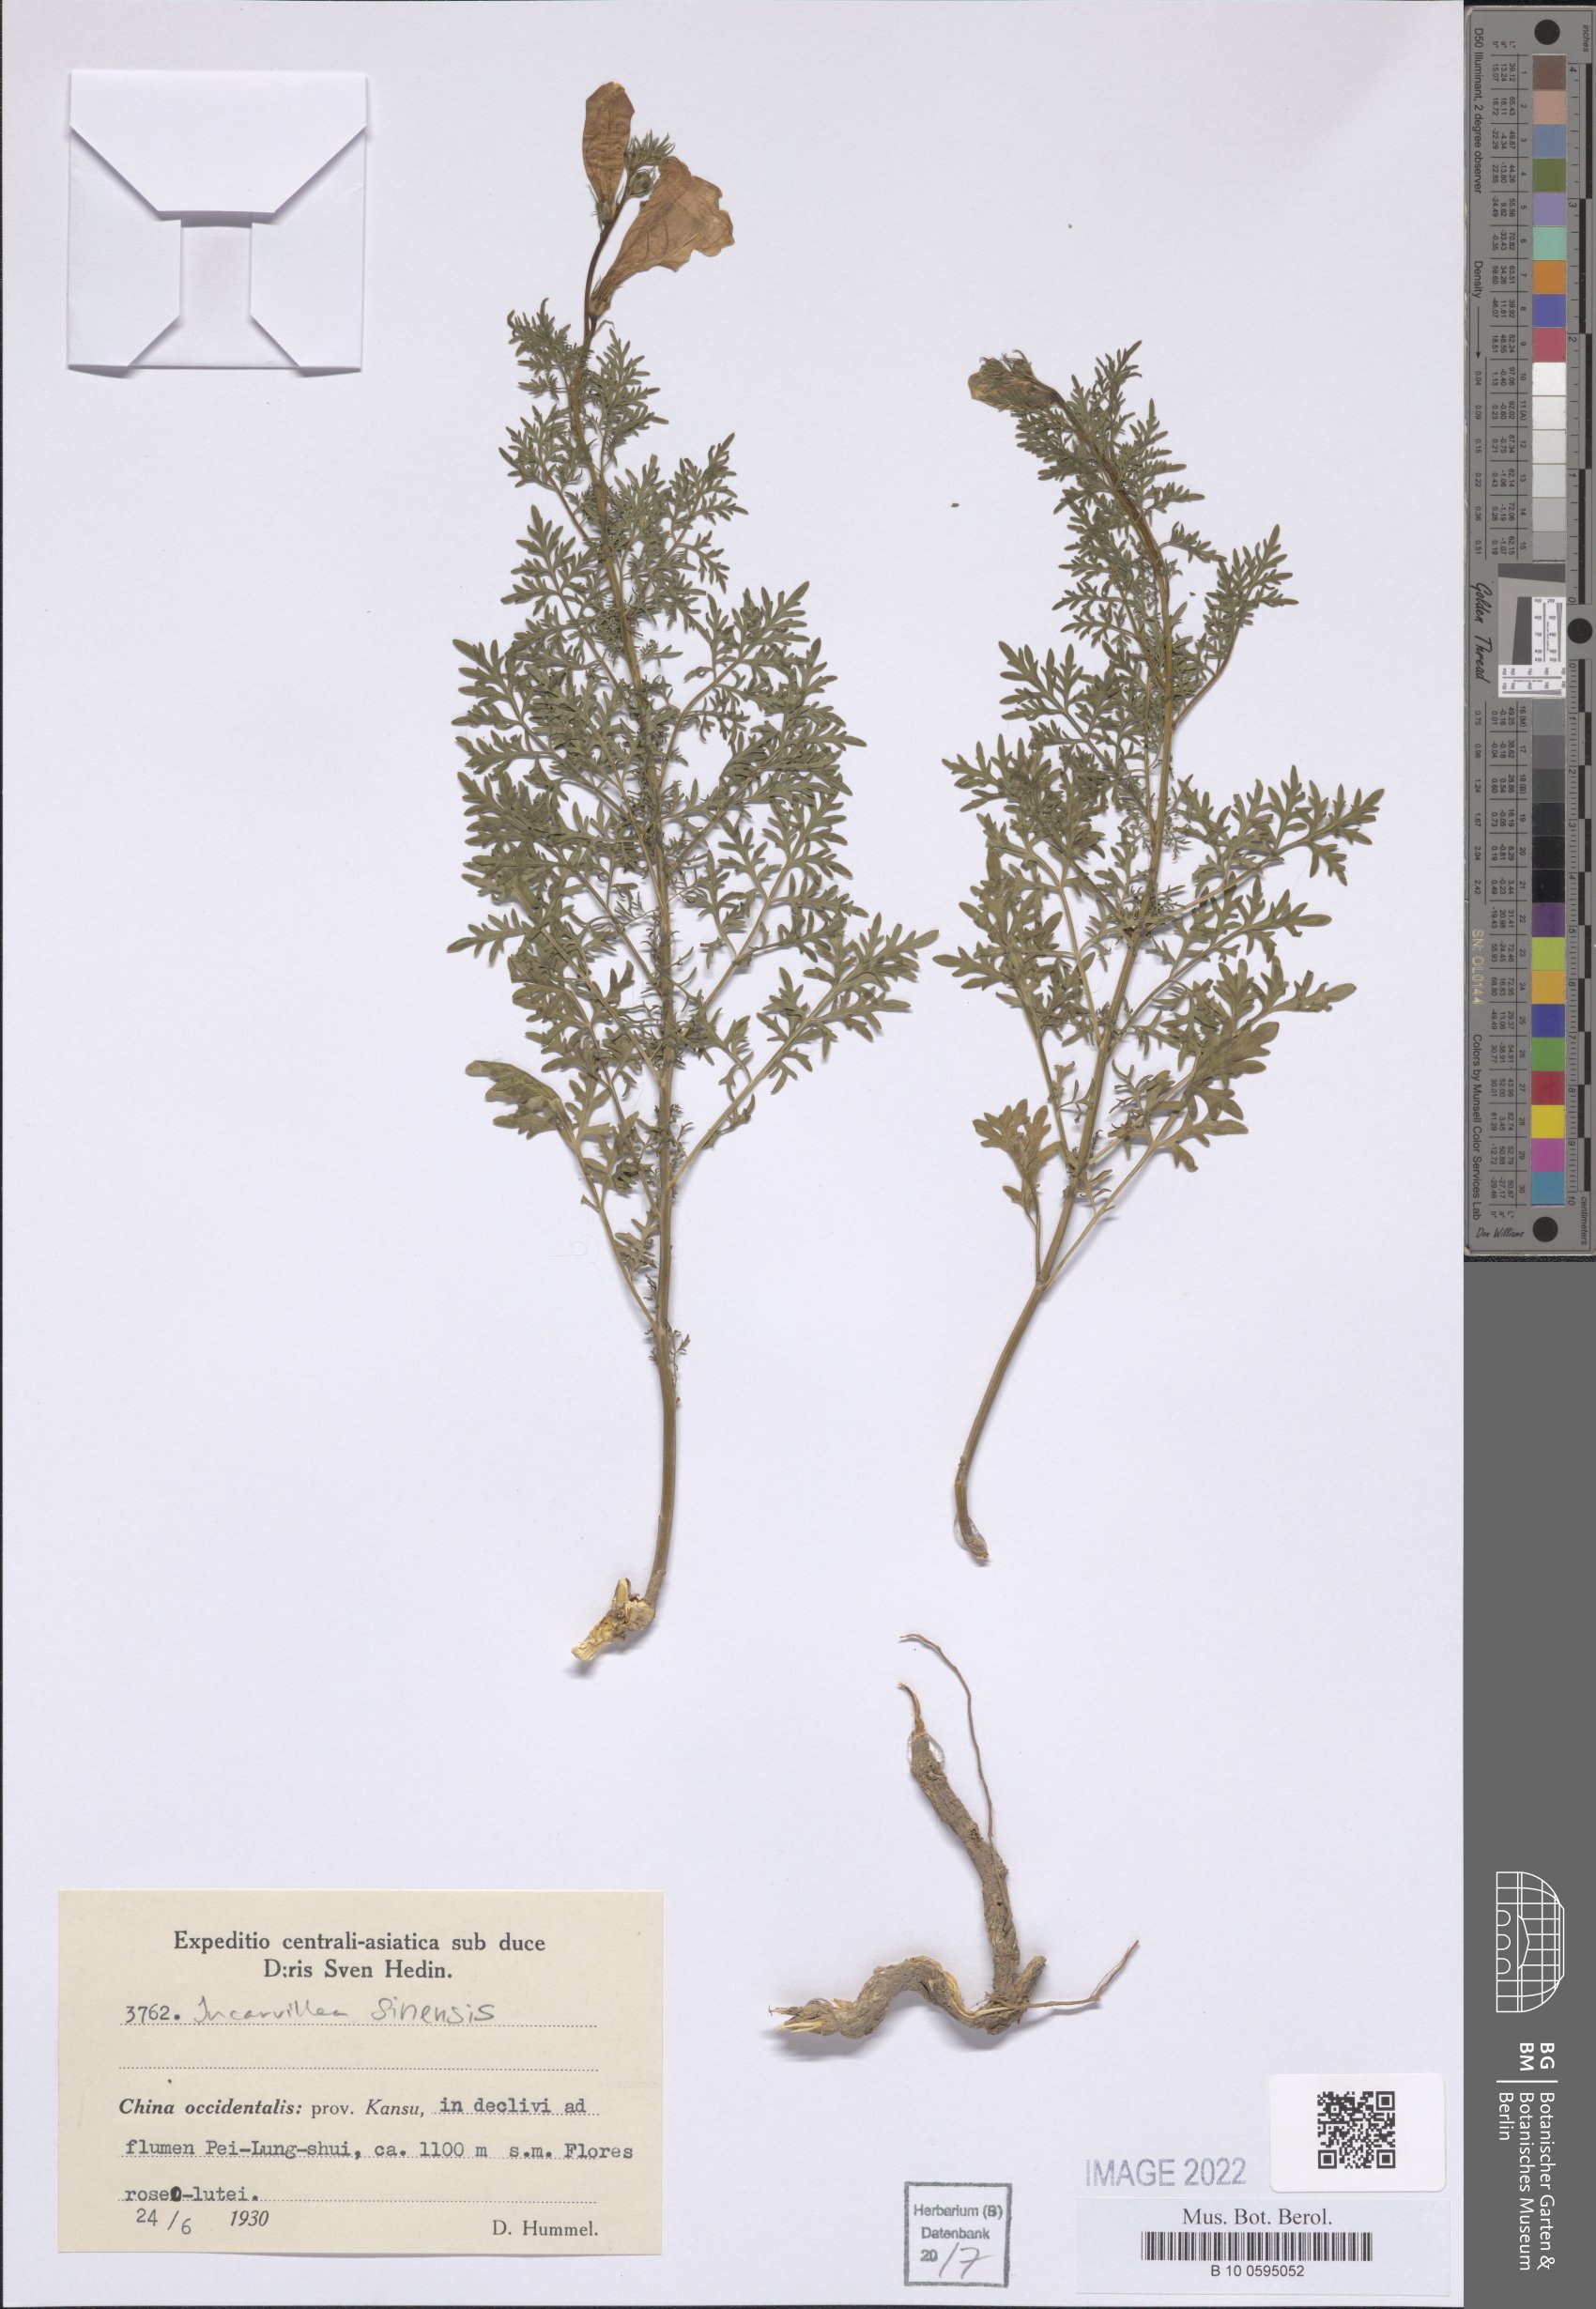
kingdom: Plantae
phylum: Tracheophyta
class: Magnoliopsida
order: Lamiales
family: Bignoniaceae
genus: Incarvillea
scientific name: Incarvillea sinensis
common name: Trumpet-flower
